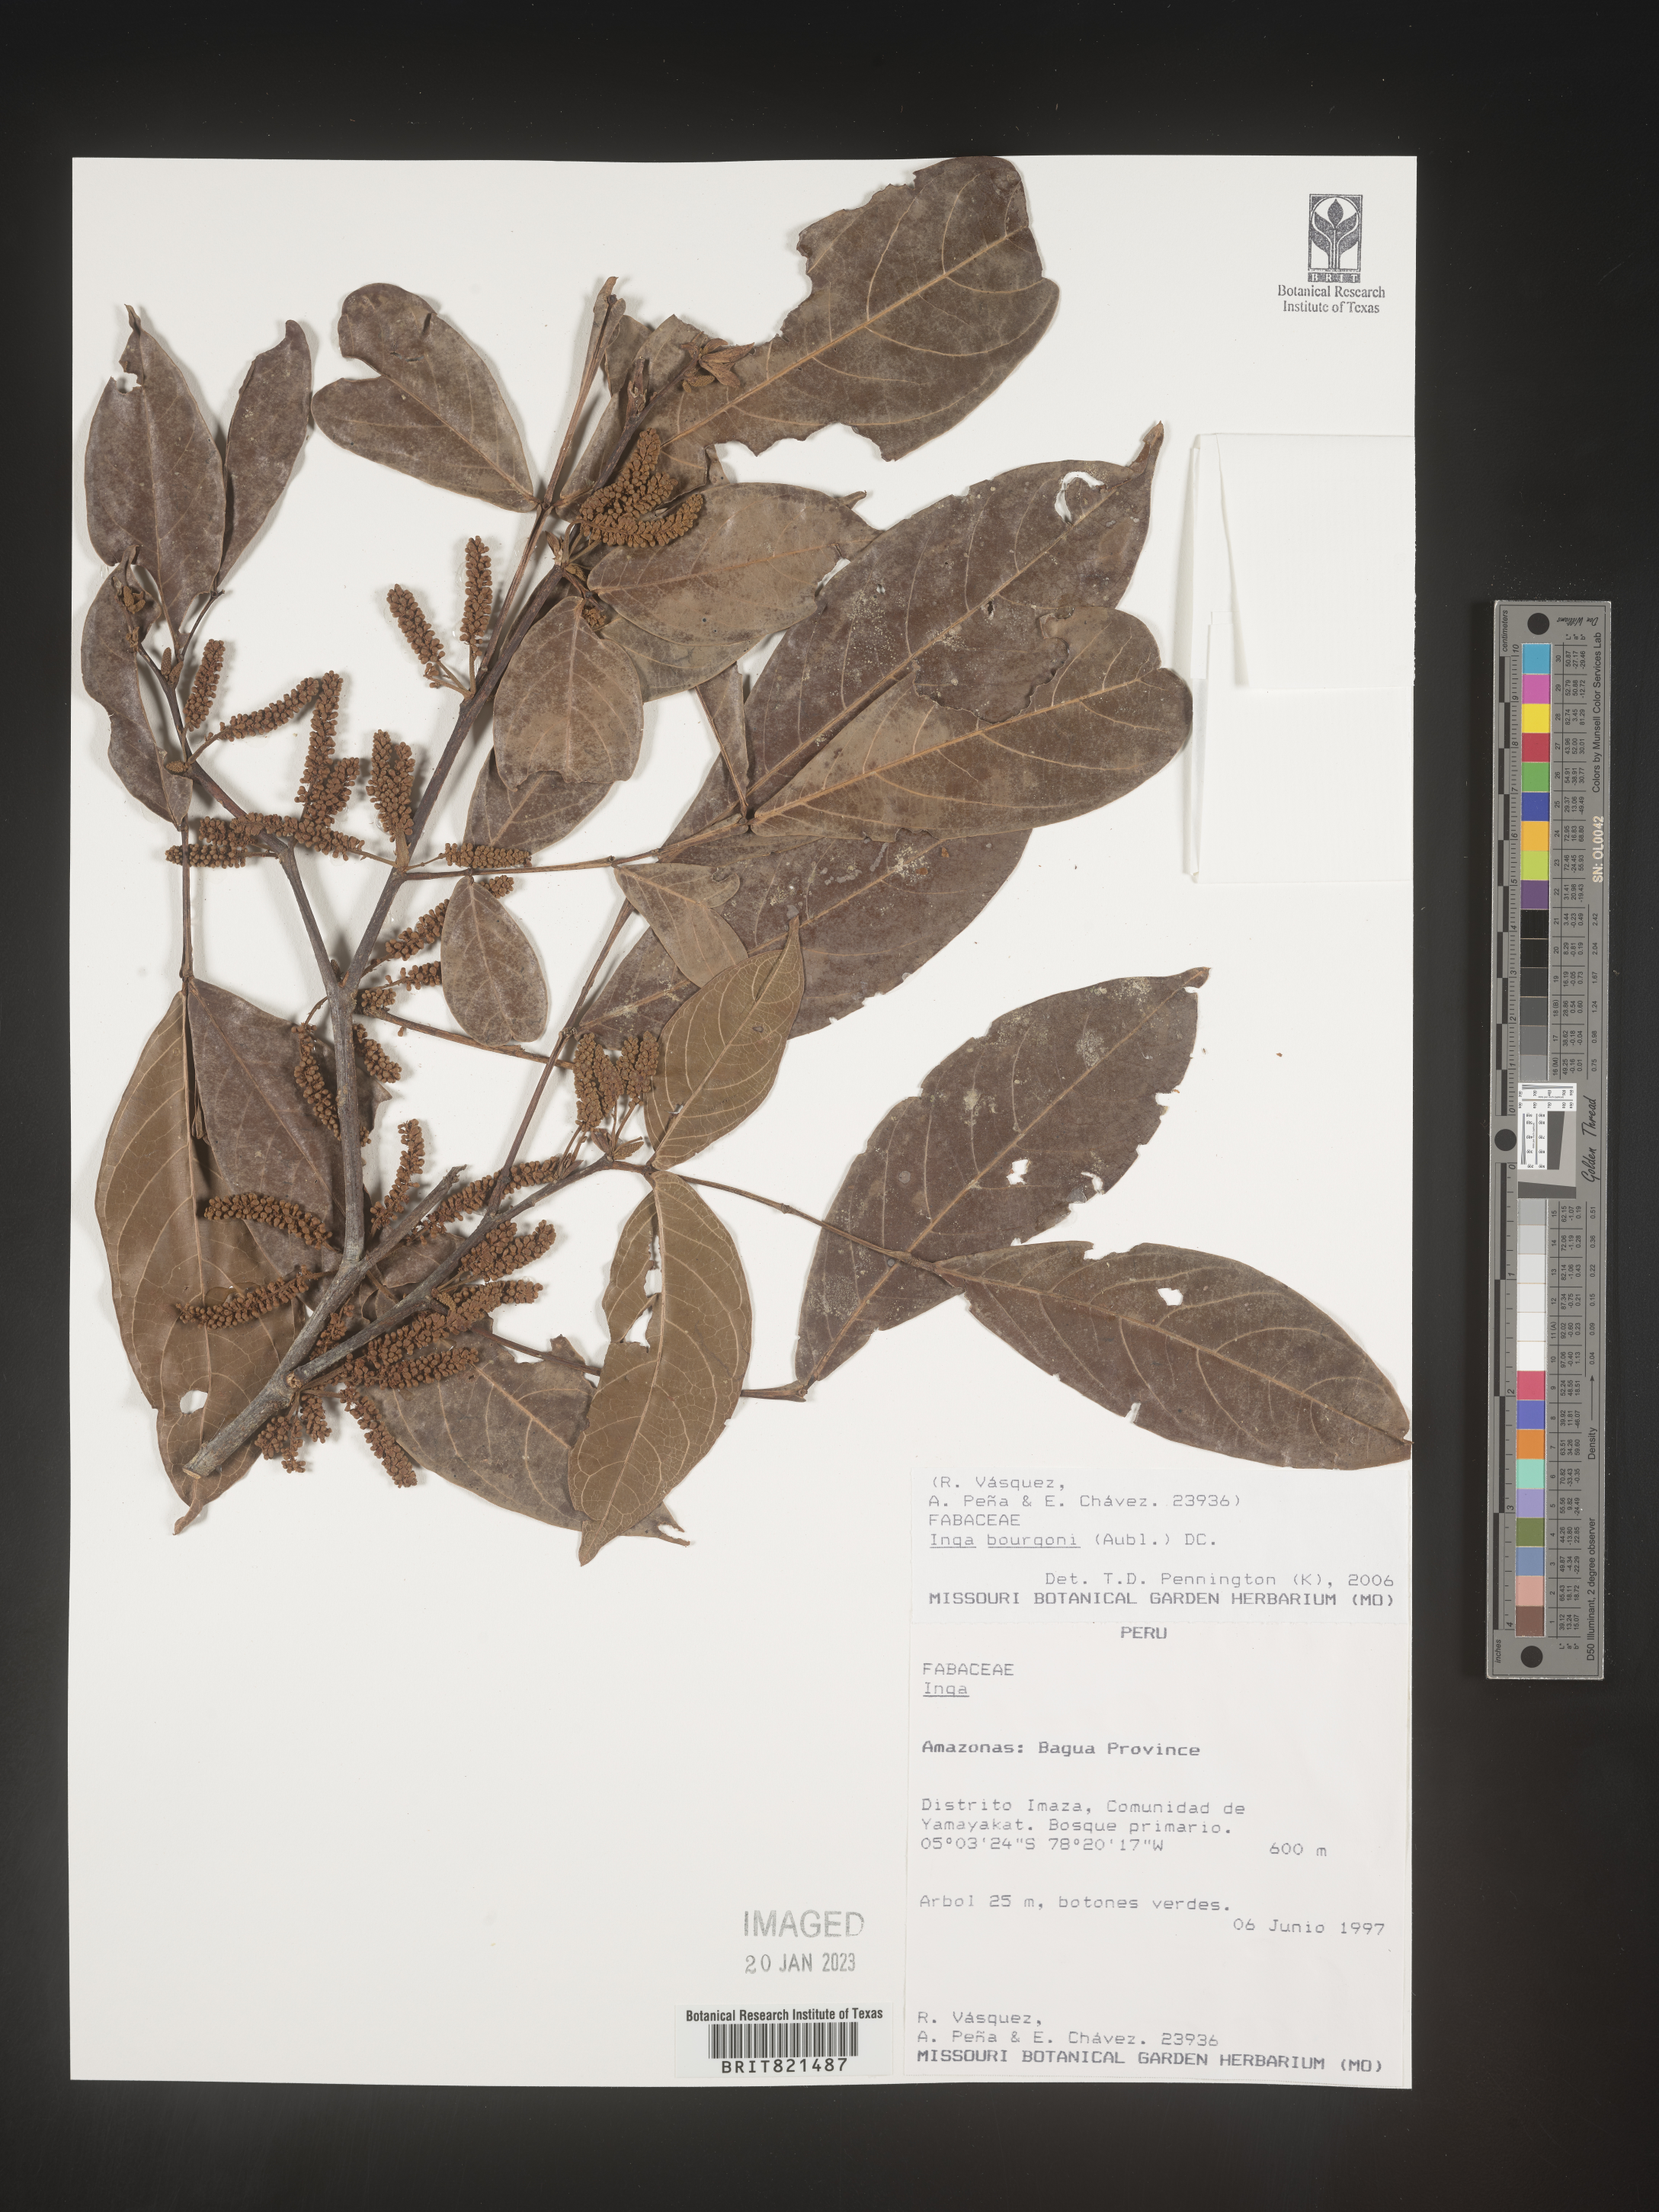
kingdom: Plantae
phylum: Tracheophyta
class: Magnoliopsida
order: Fabales
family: Fabaceae
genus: Inga
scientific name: Inga
